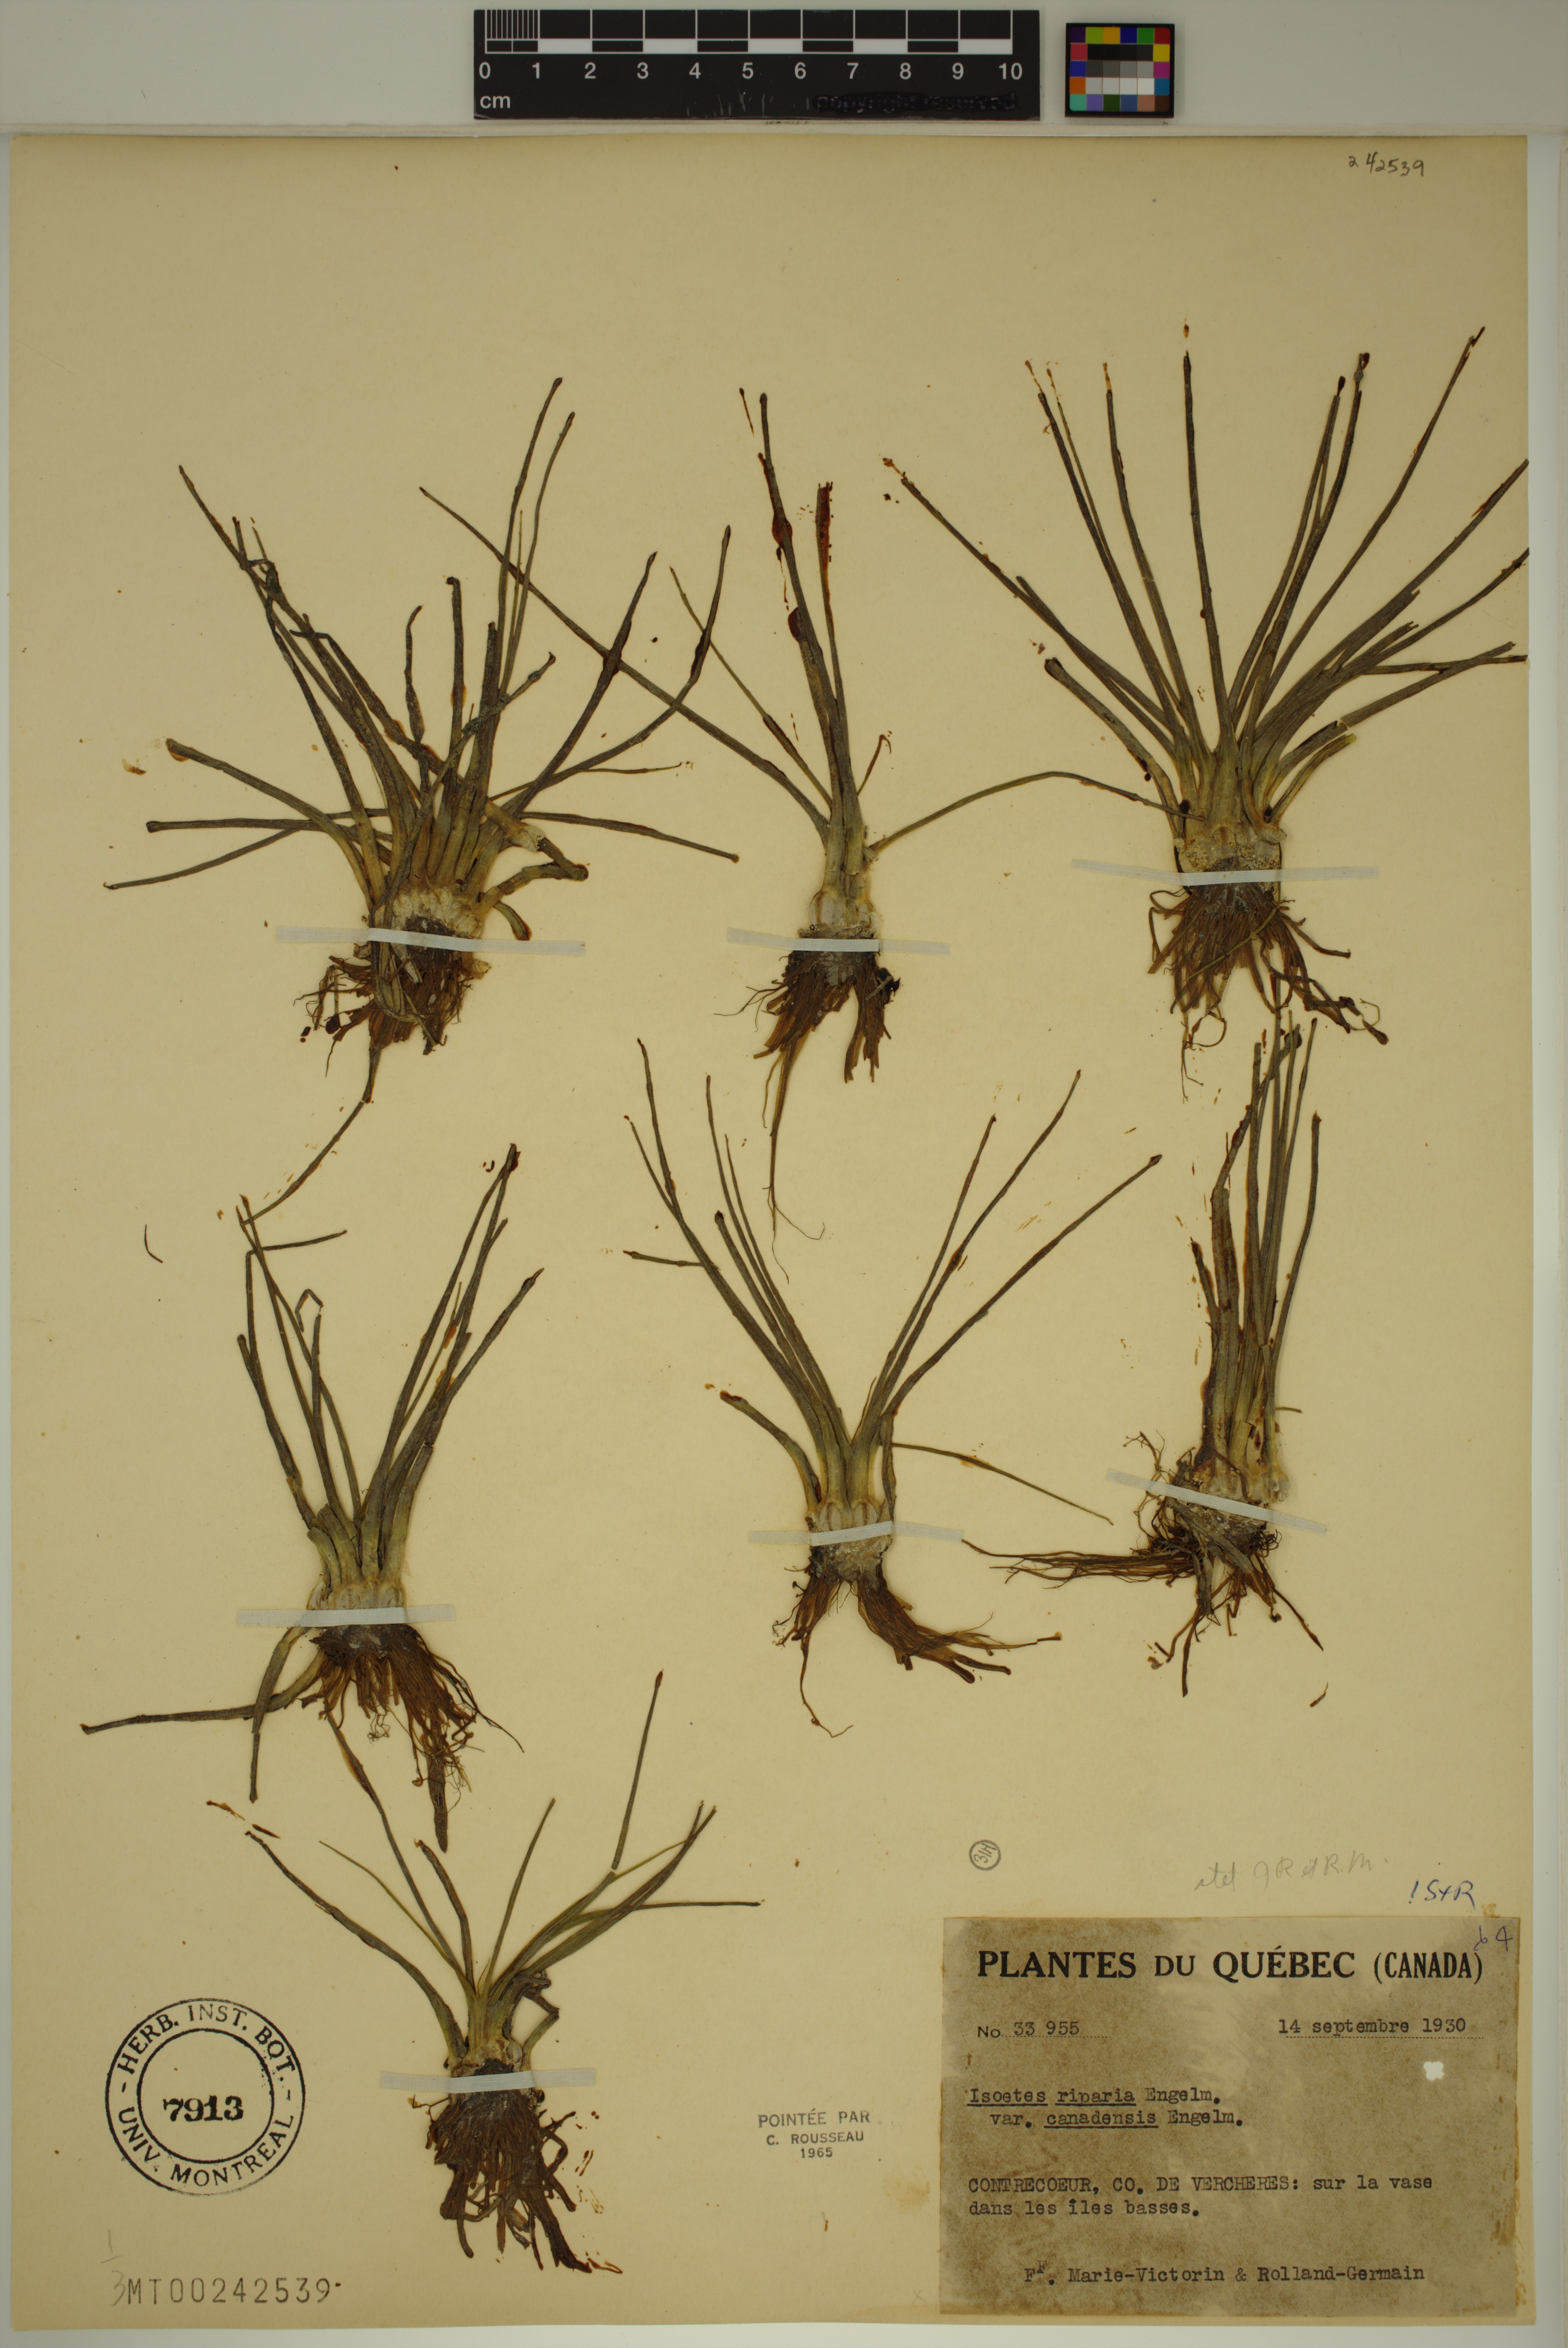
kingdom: Plantae
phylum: Tracheophyta
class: Lycopodiopsida
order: Isoetales
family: Isoetaceae
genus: Isoetes
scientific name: Isoetes septentrionalis
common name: Northern quillwort
